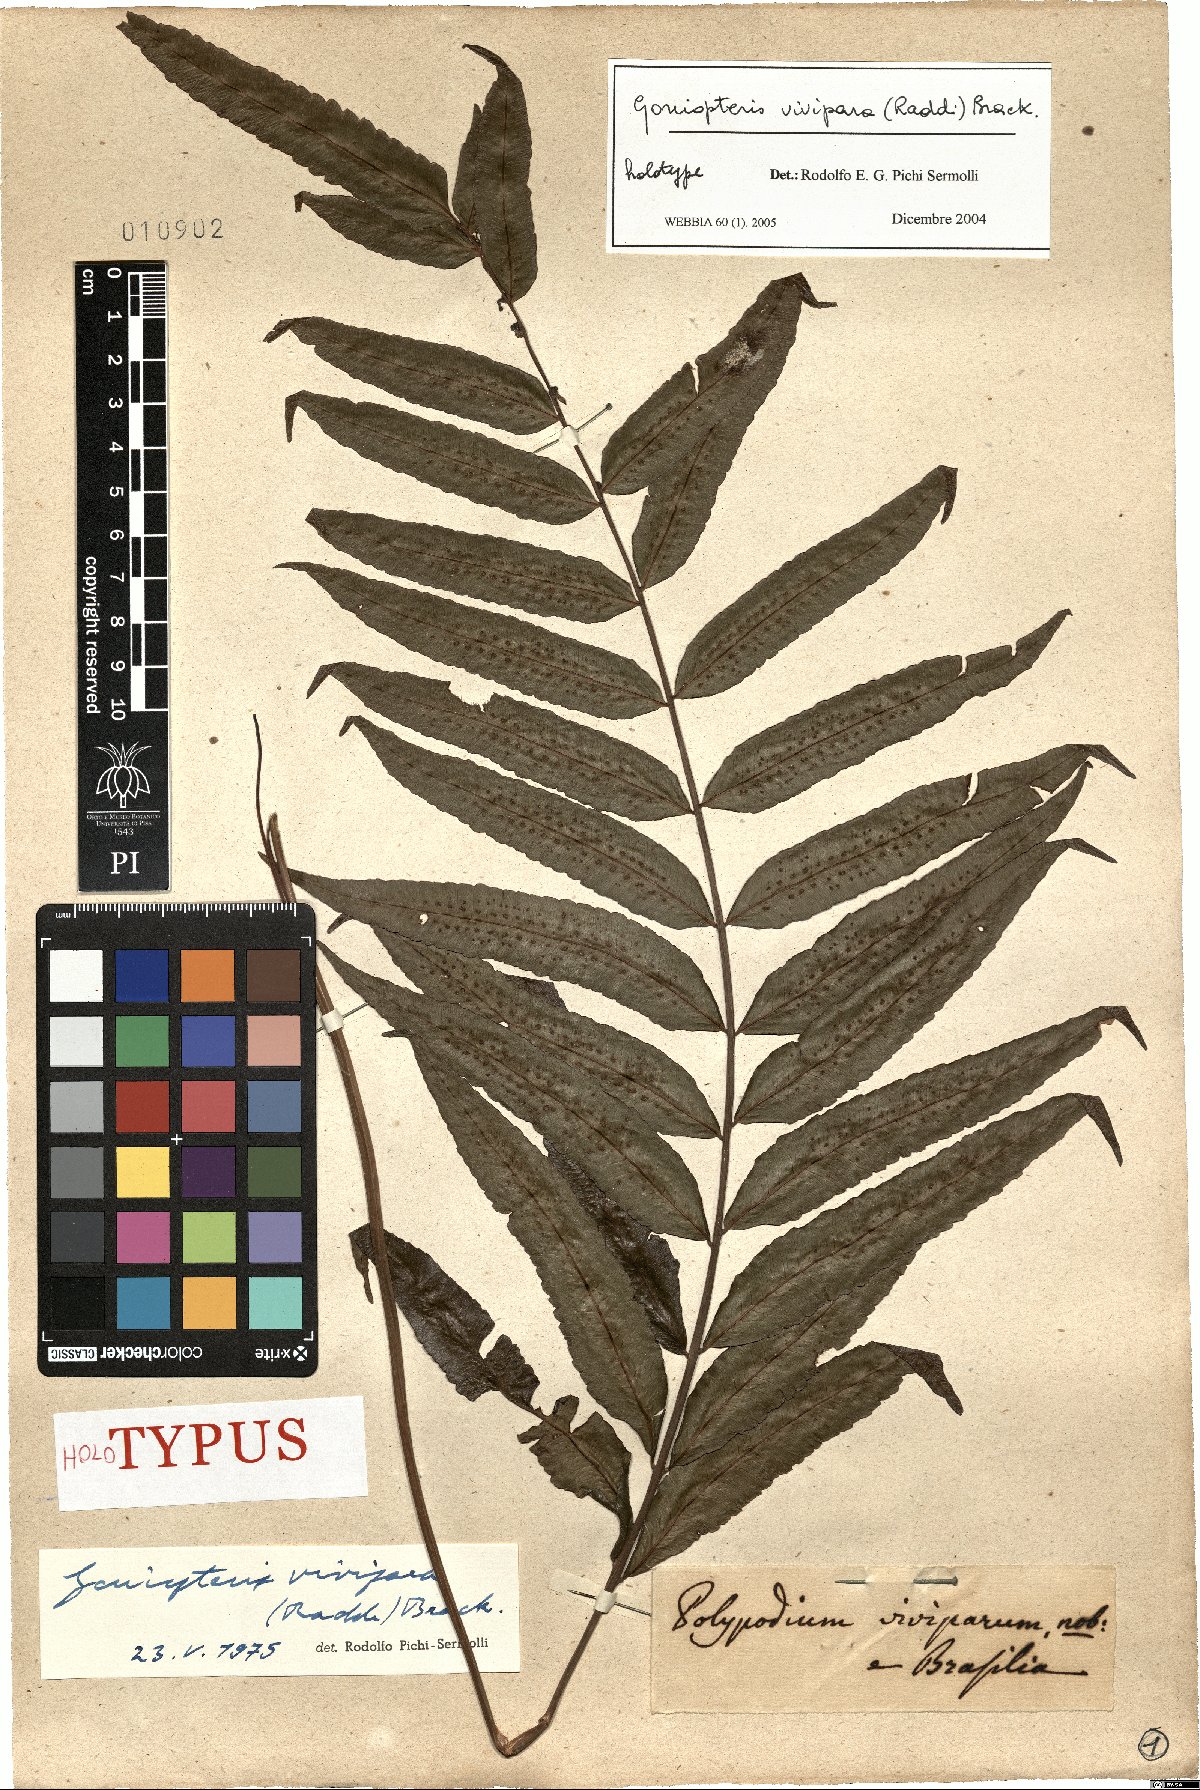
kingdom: Plantae
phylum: Tracheophyta
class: Polypodiopsida
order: Polypodiales
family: Thelypteridaceae
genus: Goniopteris
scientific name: Goniopteris vivipara
